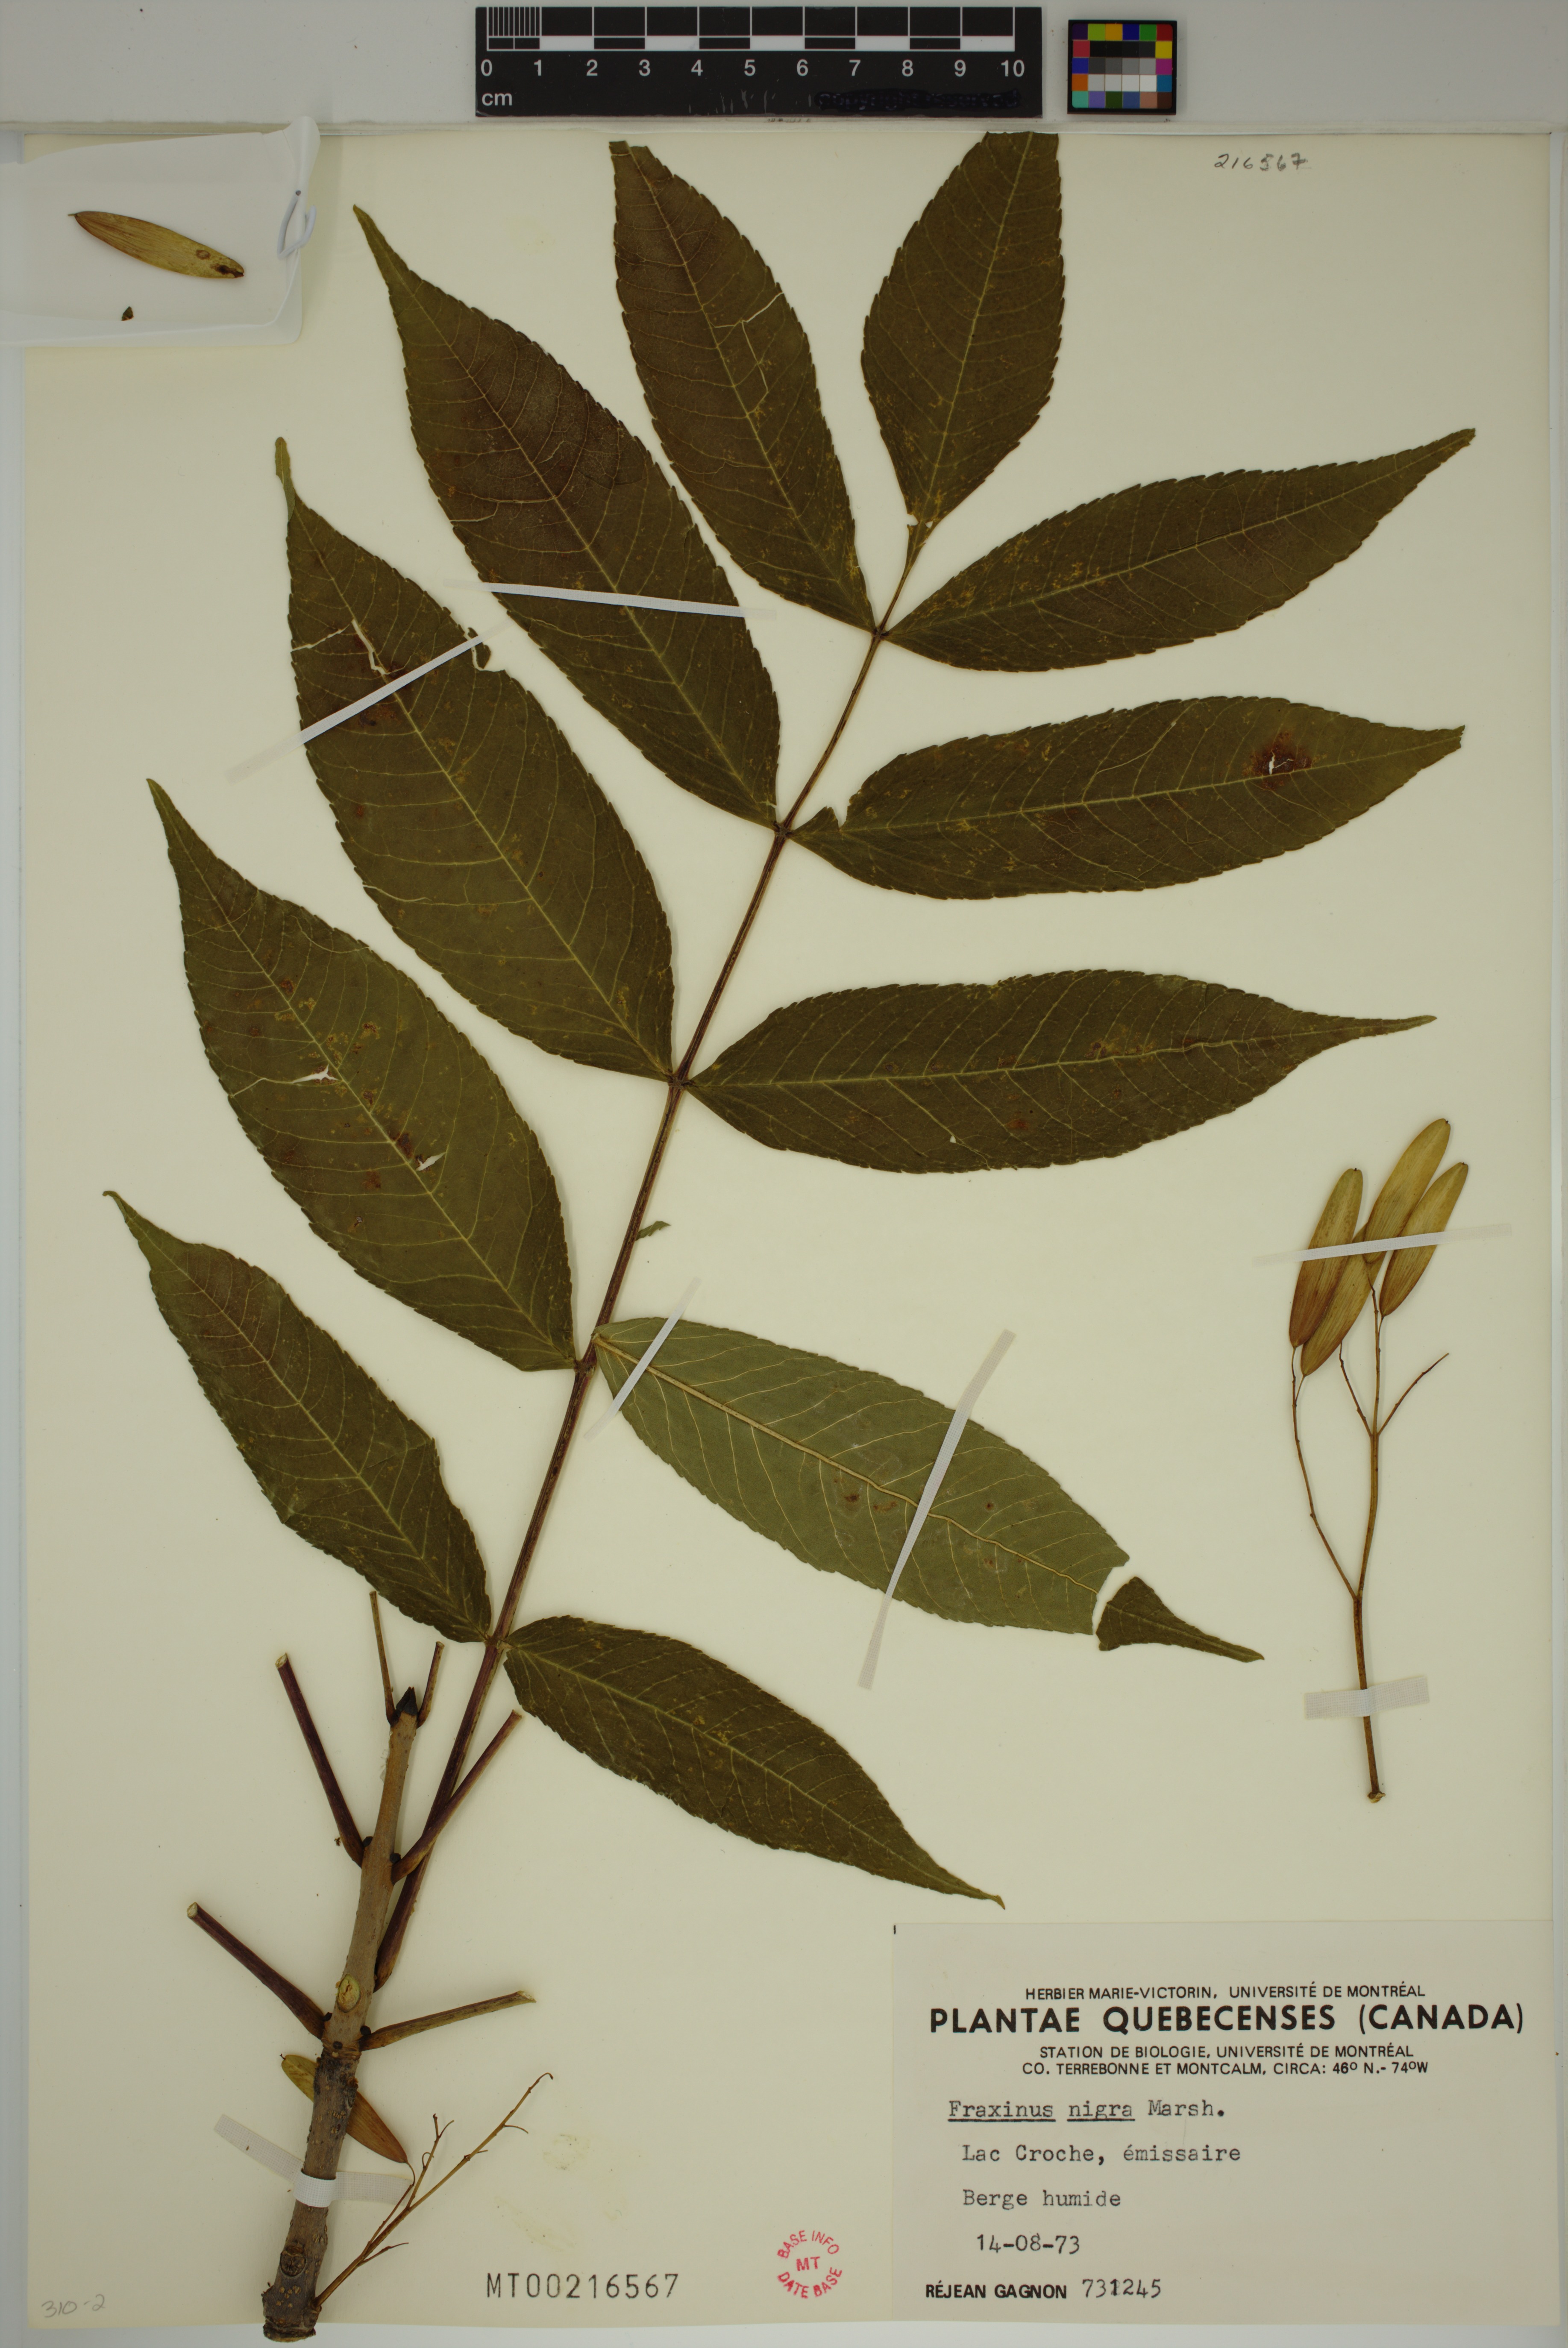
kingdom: Plantae
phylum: Tracheophyta
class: Magnoliopsida
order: Lamiales
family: Oleaceae
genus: Fraxinus
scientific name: Fraxinus nigra
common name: Black ash
